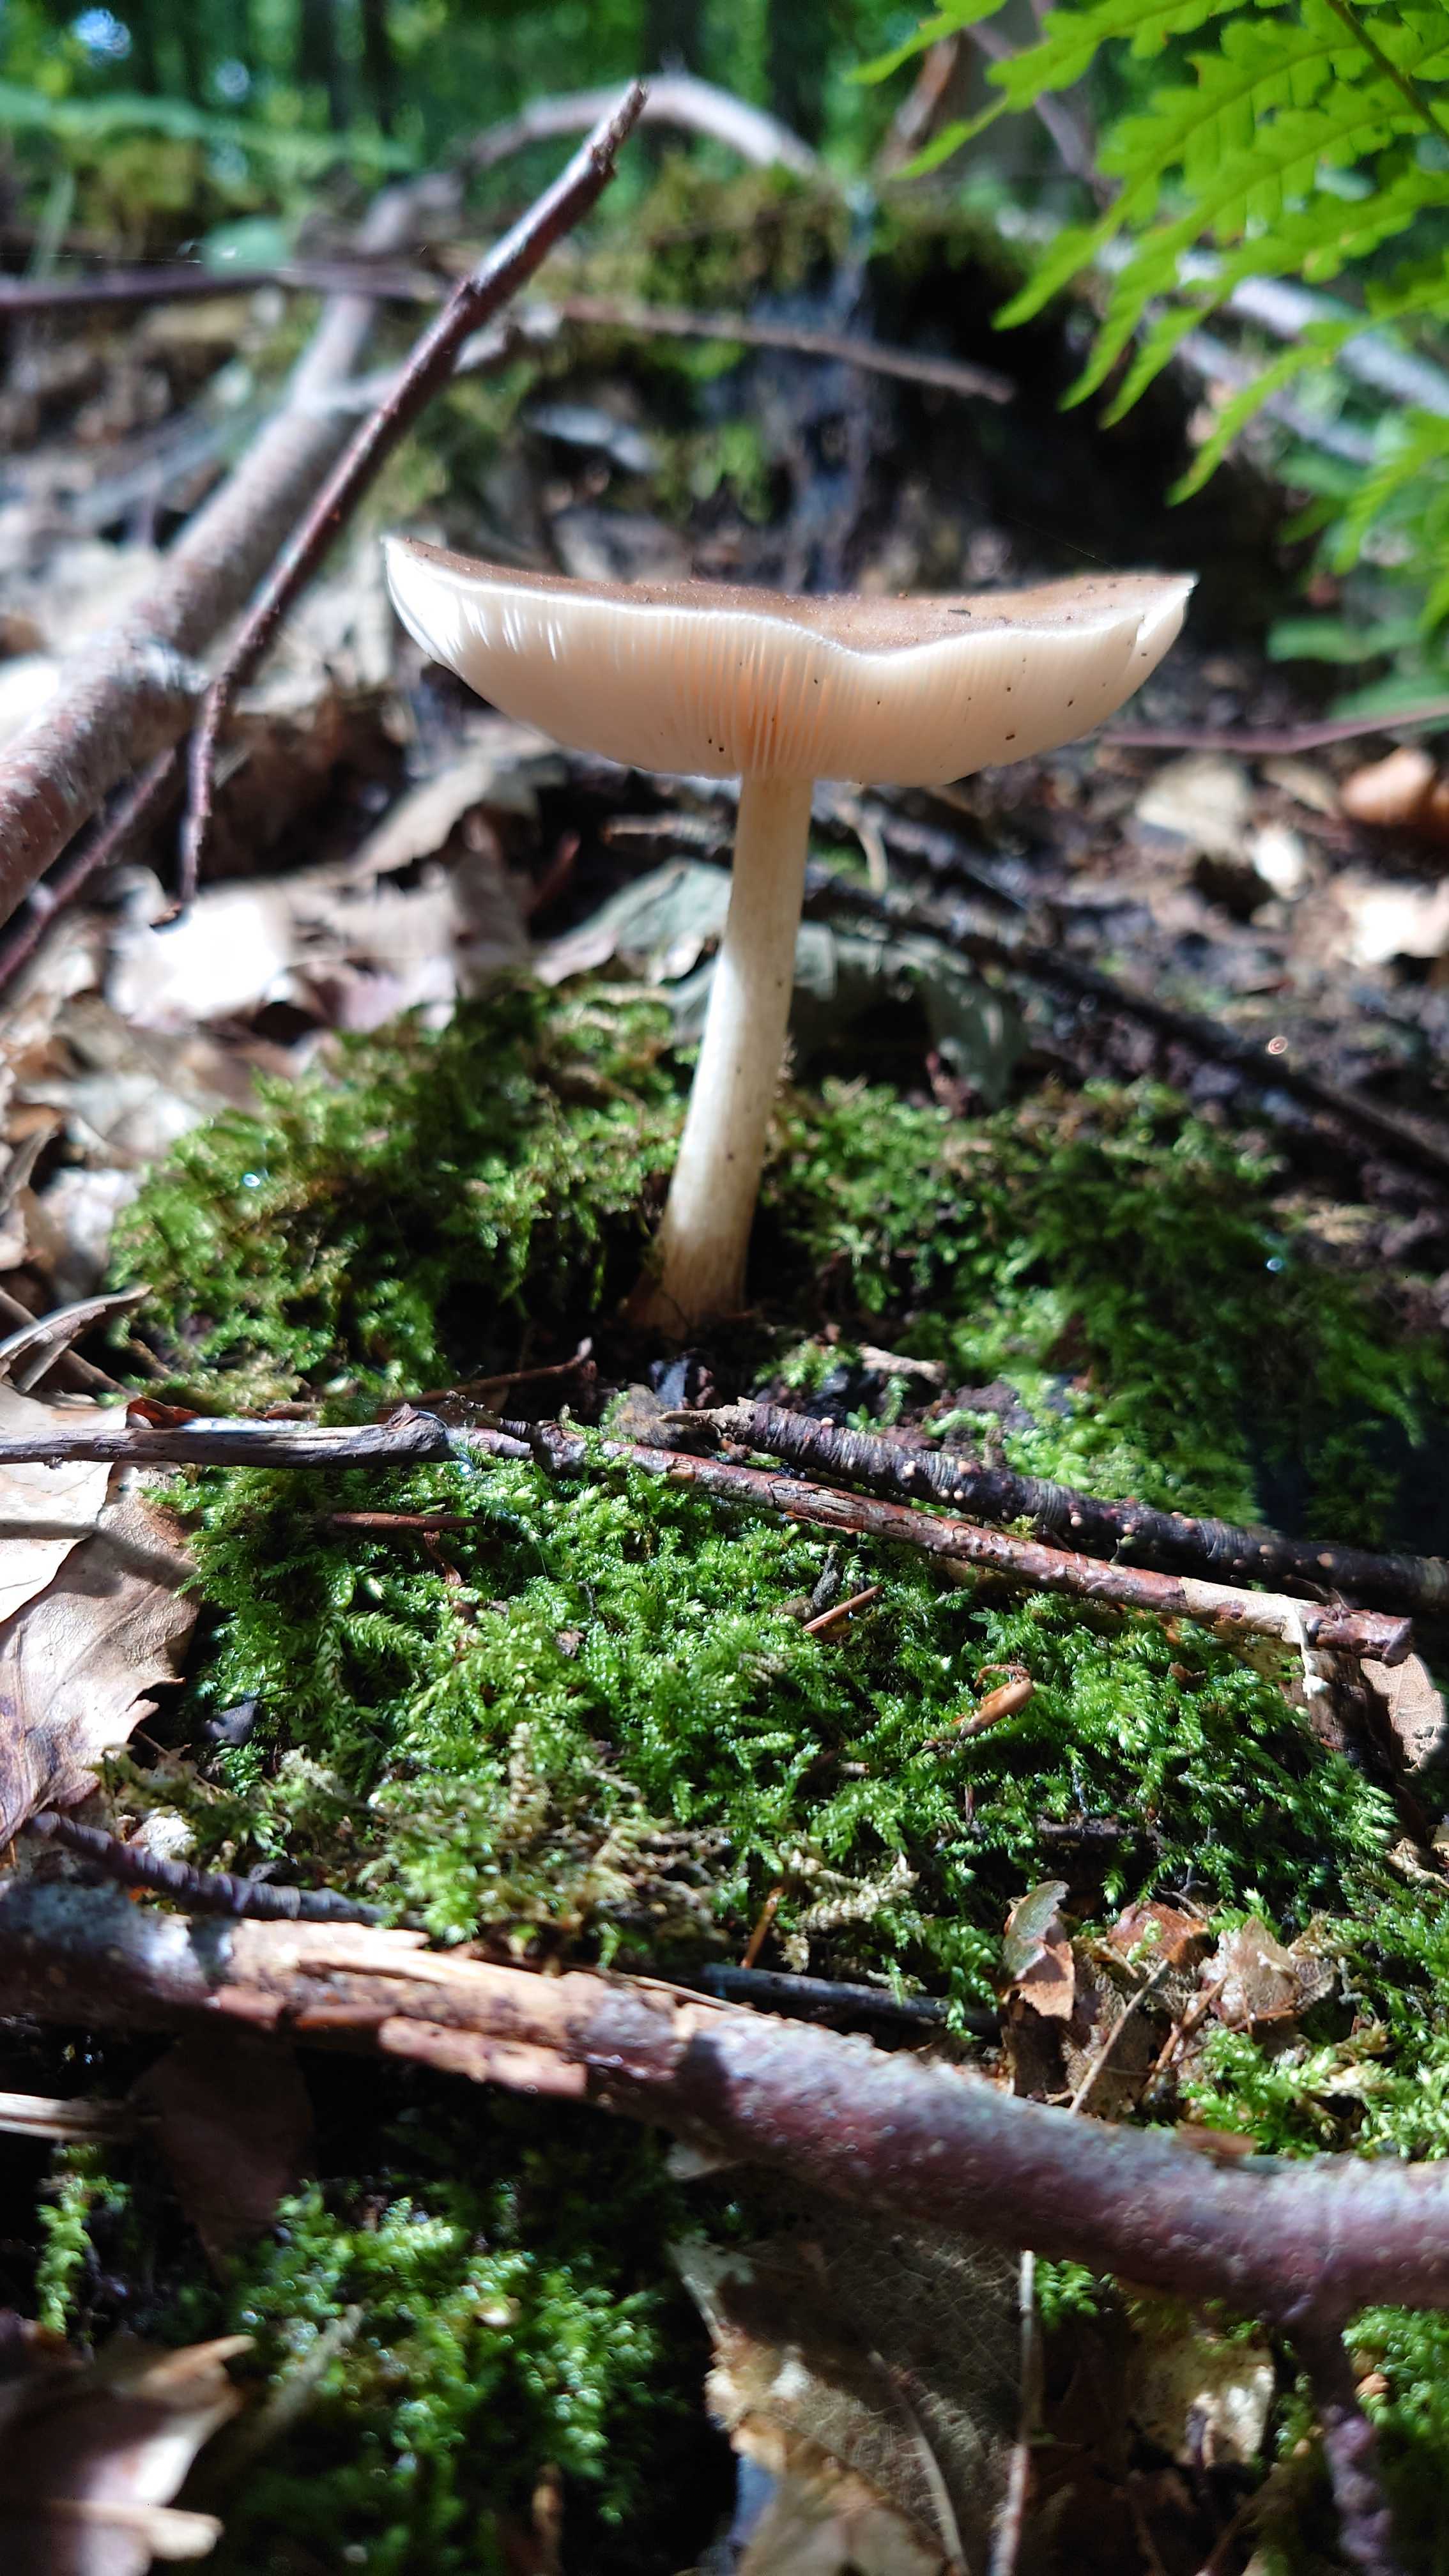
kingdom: Fungi
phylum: Basidiomycota
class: Agaricomycetes
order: Agaricales
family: Pluteaceae
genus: Pluteus
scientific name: Pluteus cervinus
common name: sodfarvet skærmhat
